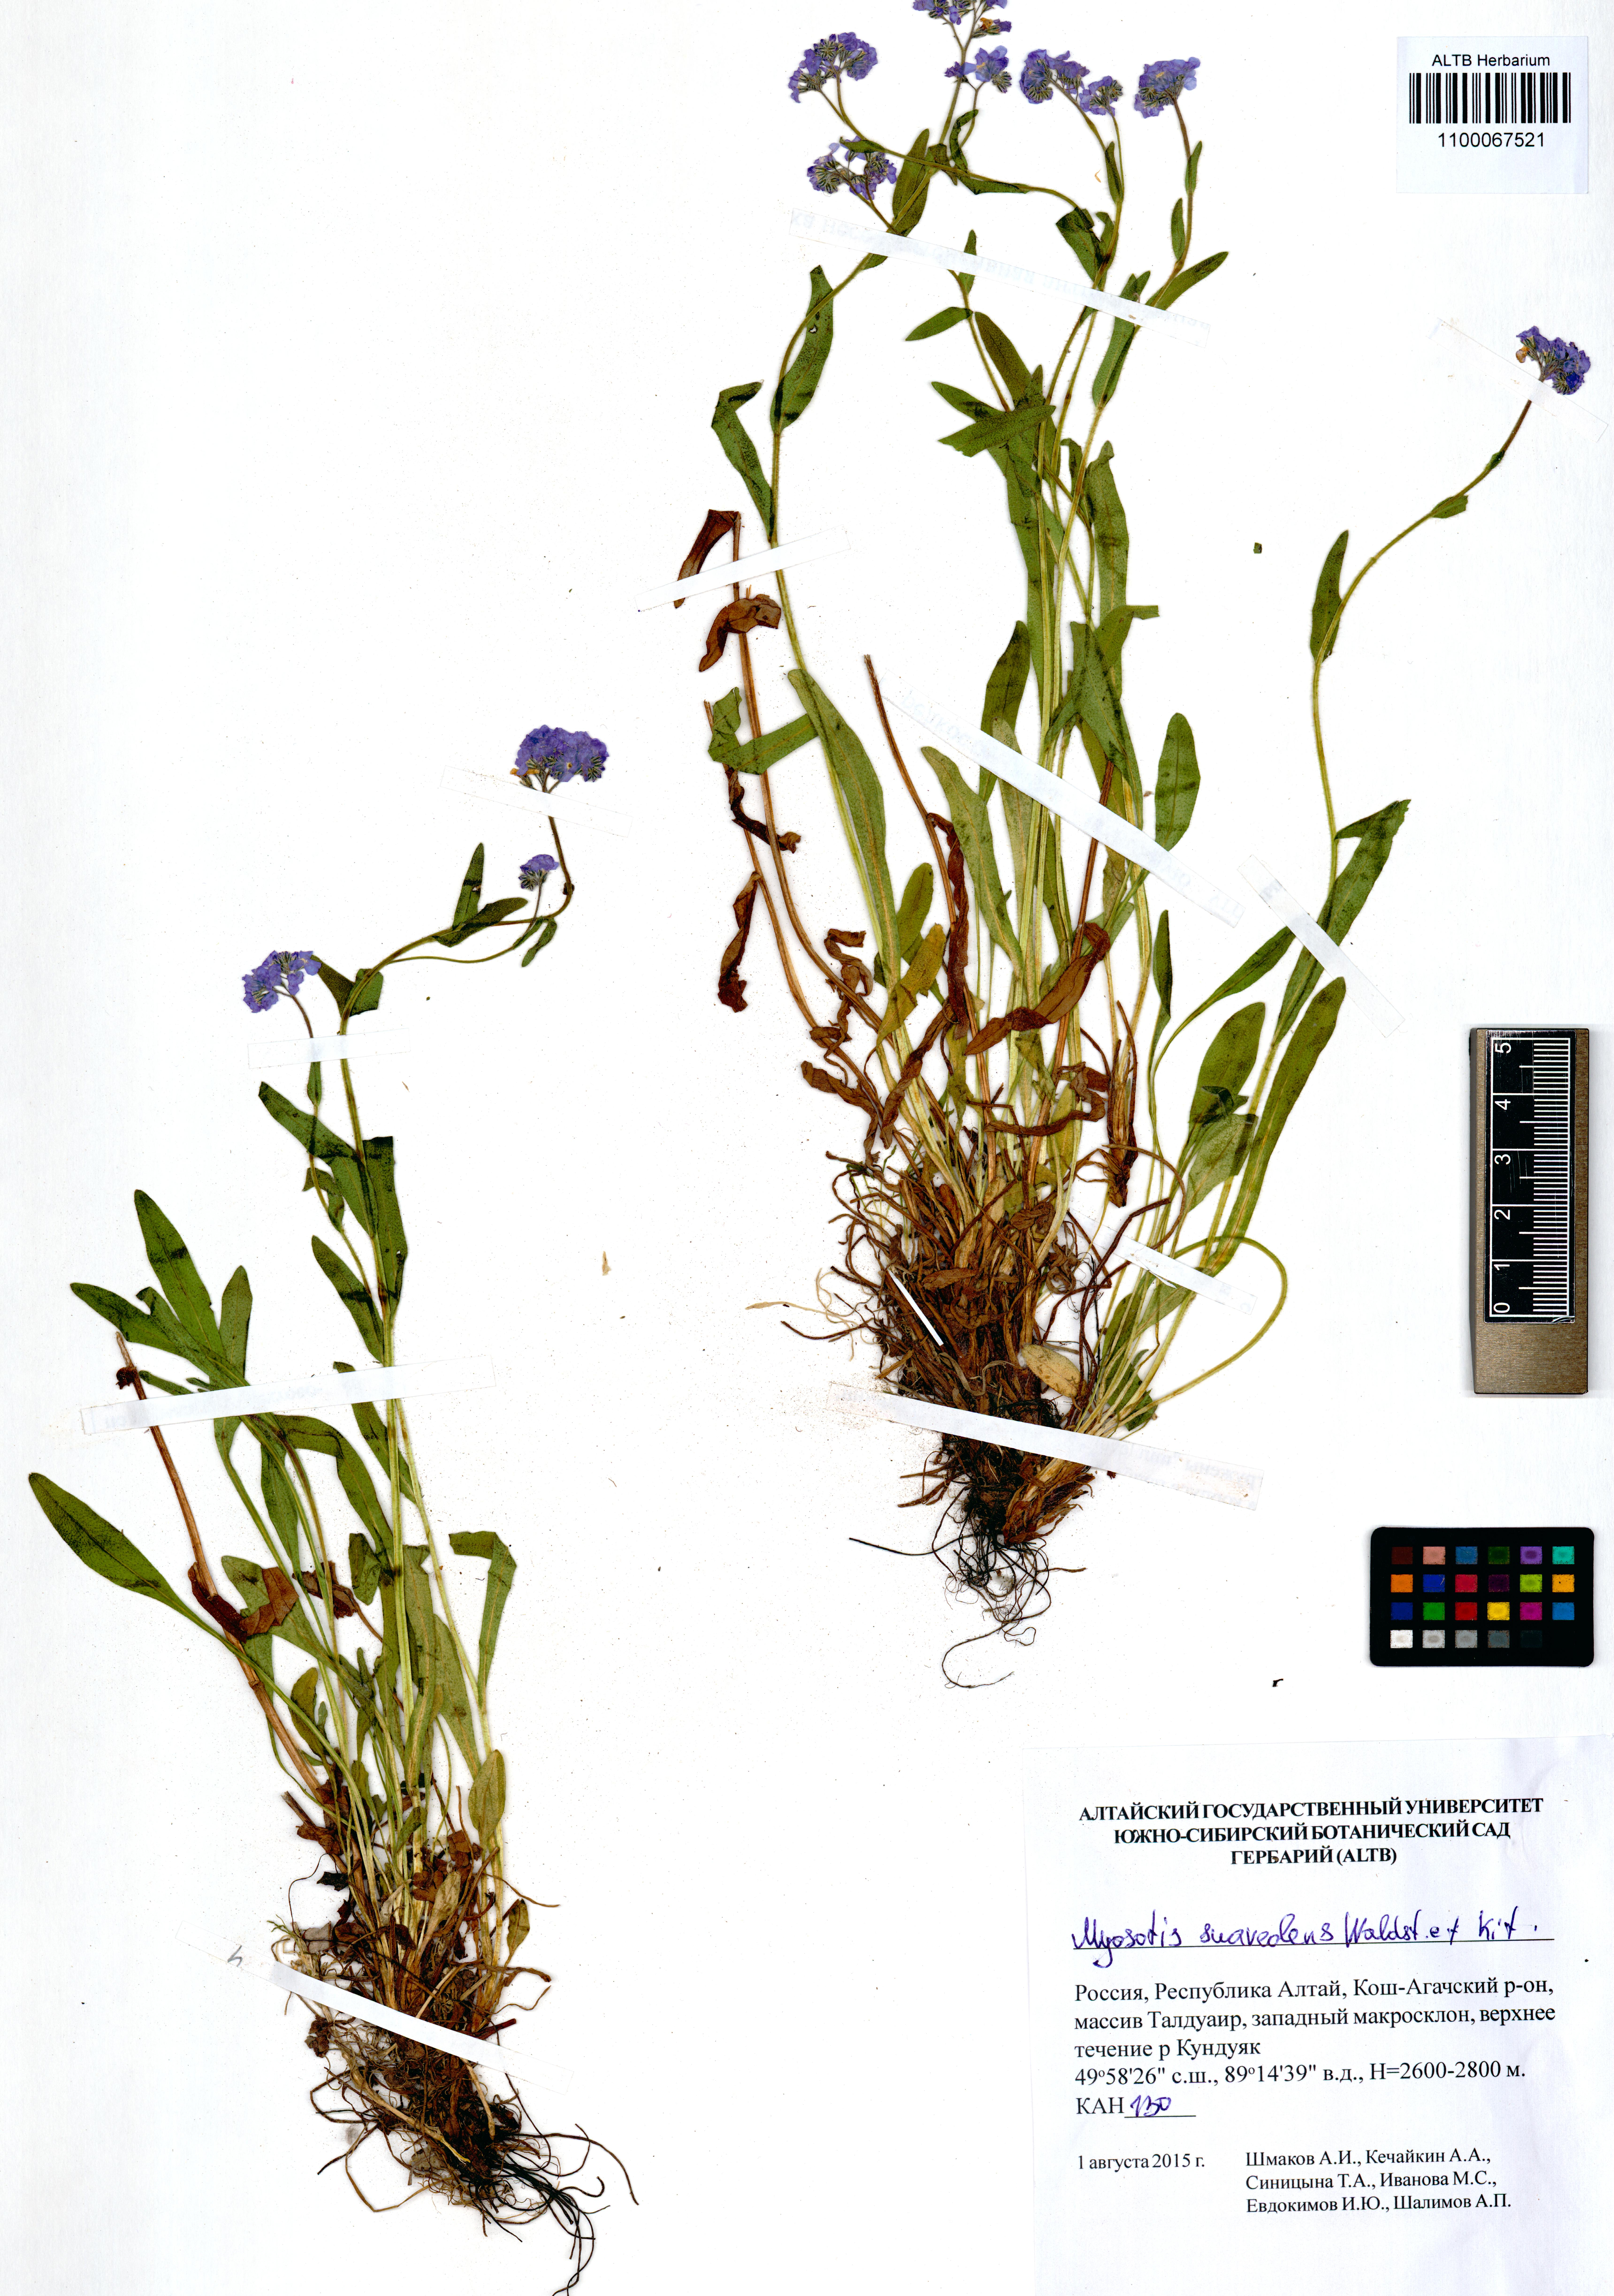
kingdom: Plantae
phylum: Tracheophyta
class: Magnoliopsida
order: Boraginales
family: Boraginaceae
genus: Myosotis
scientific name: Myosotis alpestris
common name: Alpine forget-me-not
